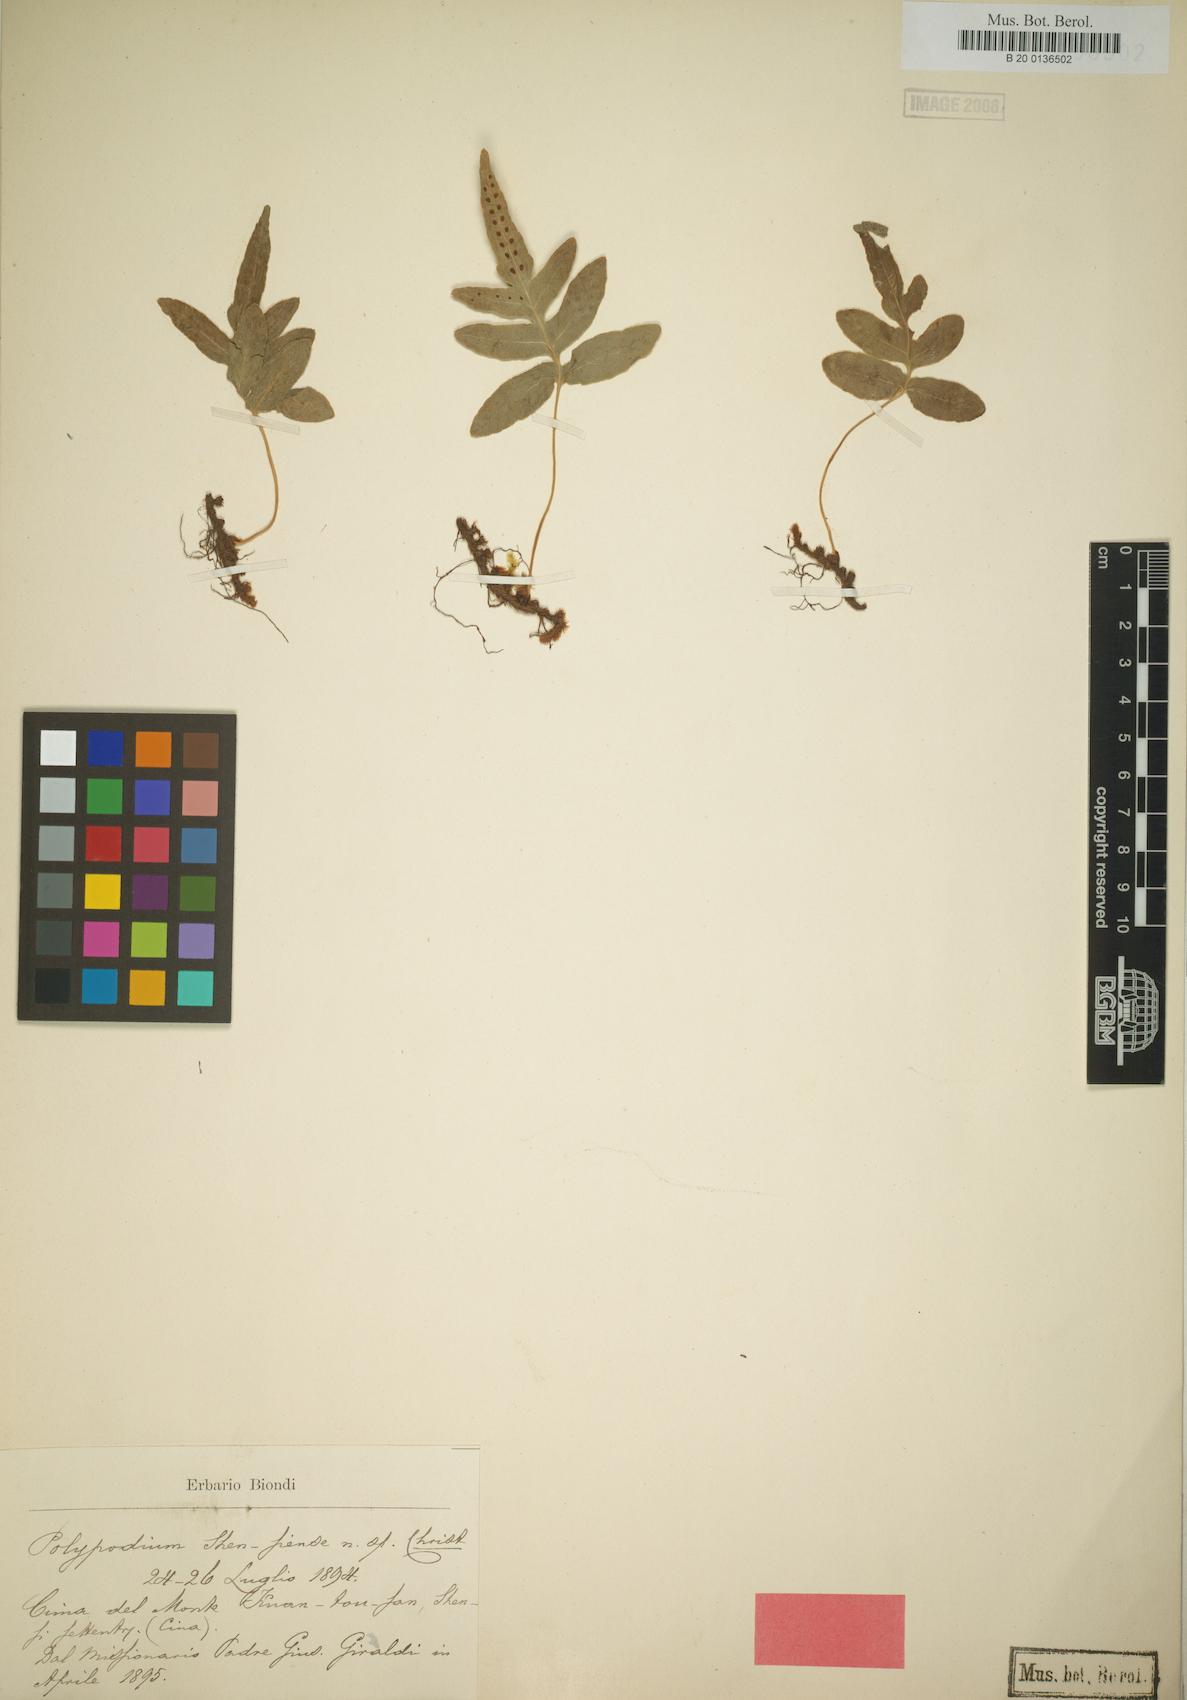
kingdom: Plantae
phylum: Tracheophyta
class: Polypodiopsida
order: Polypodiales
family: Polypodiaceae
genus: Selliguea
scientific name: Selliguea senanensis
